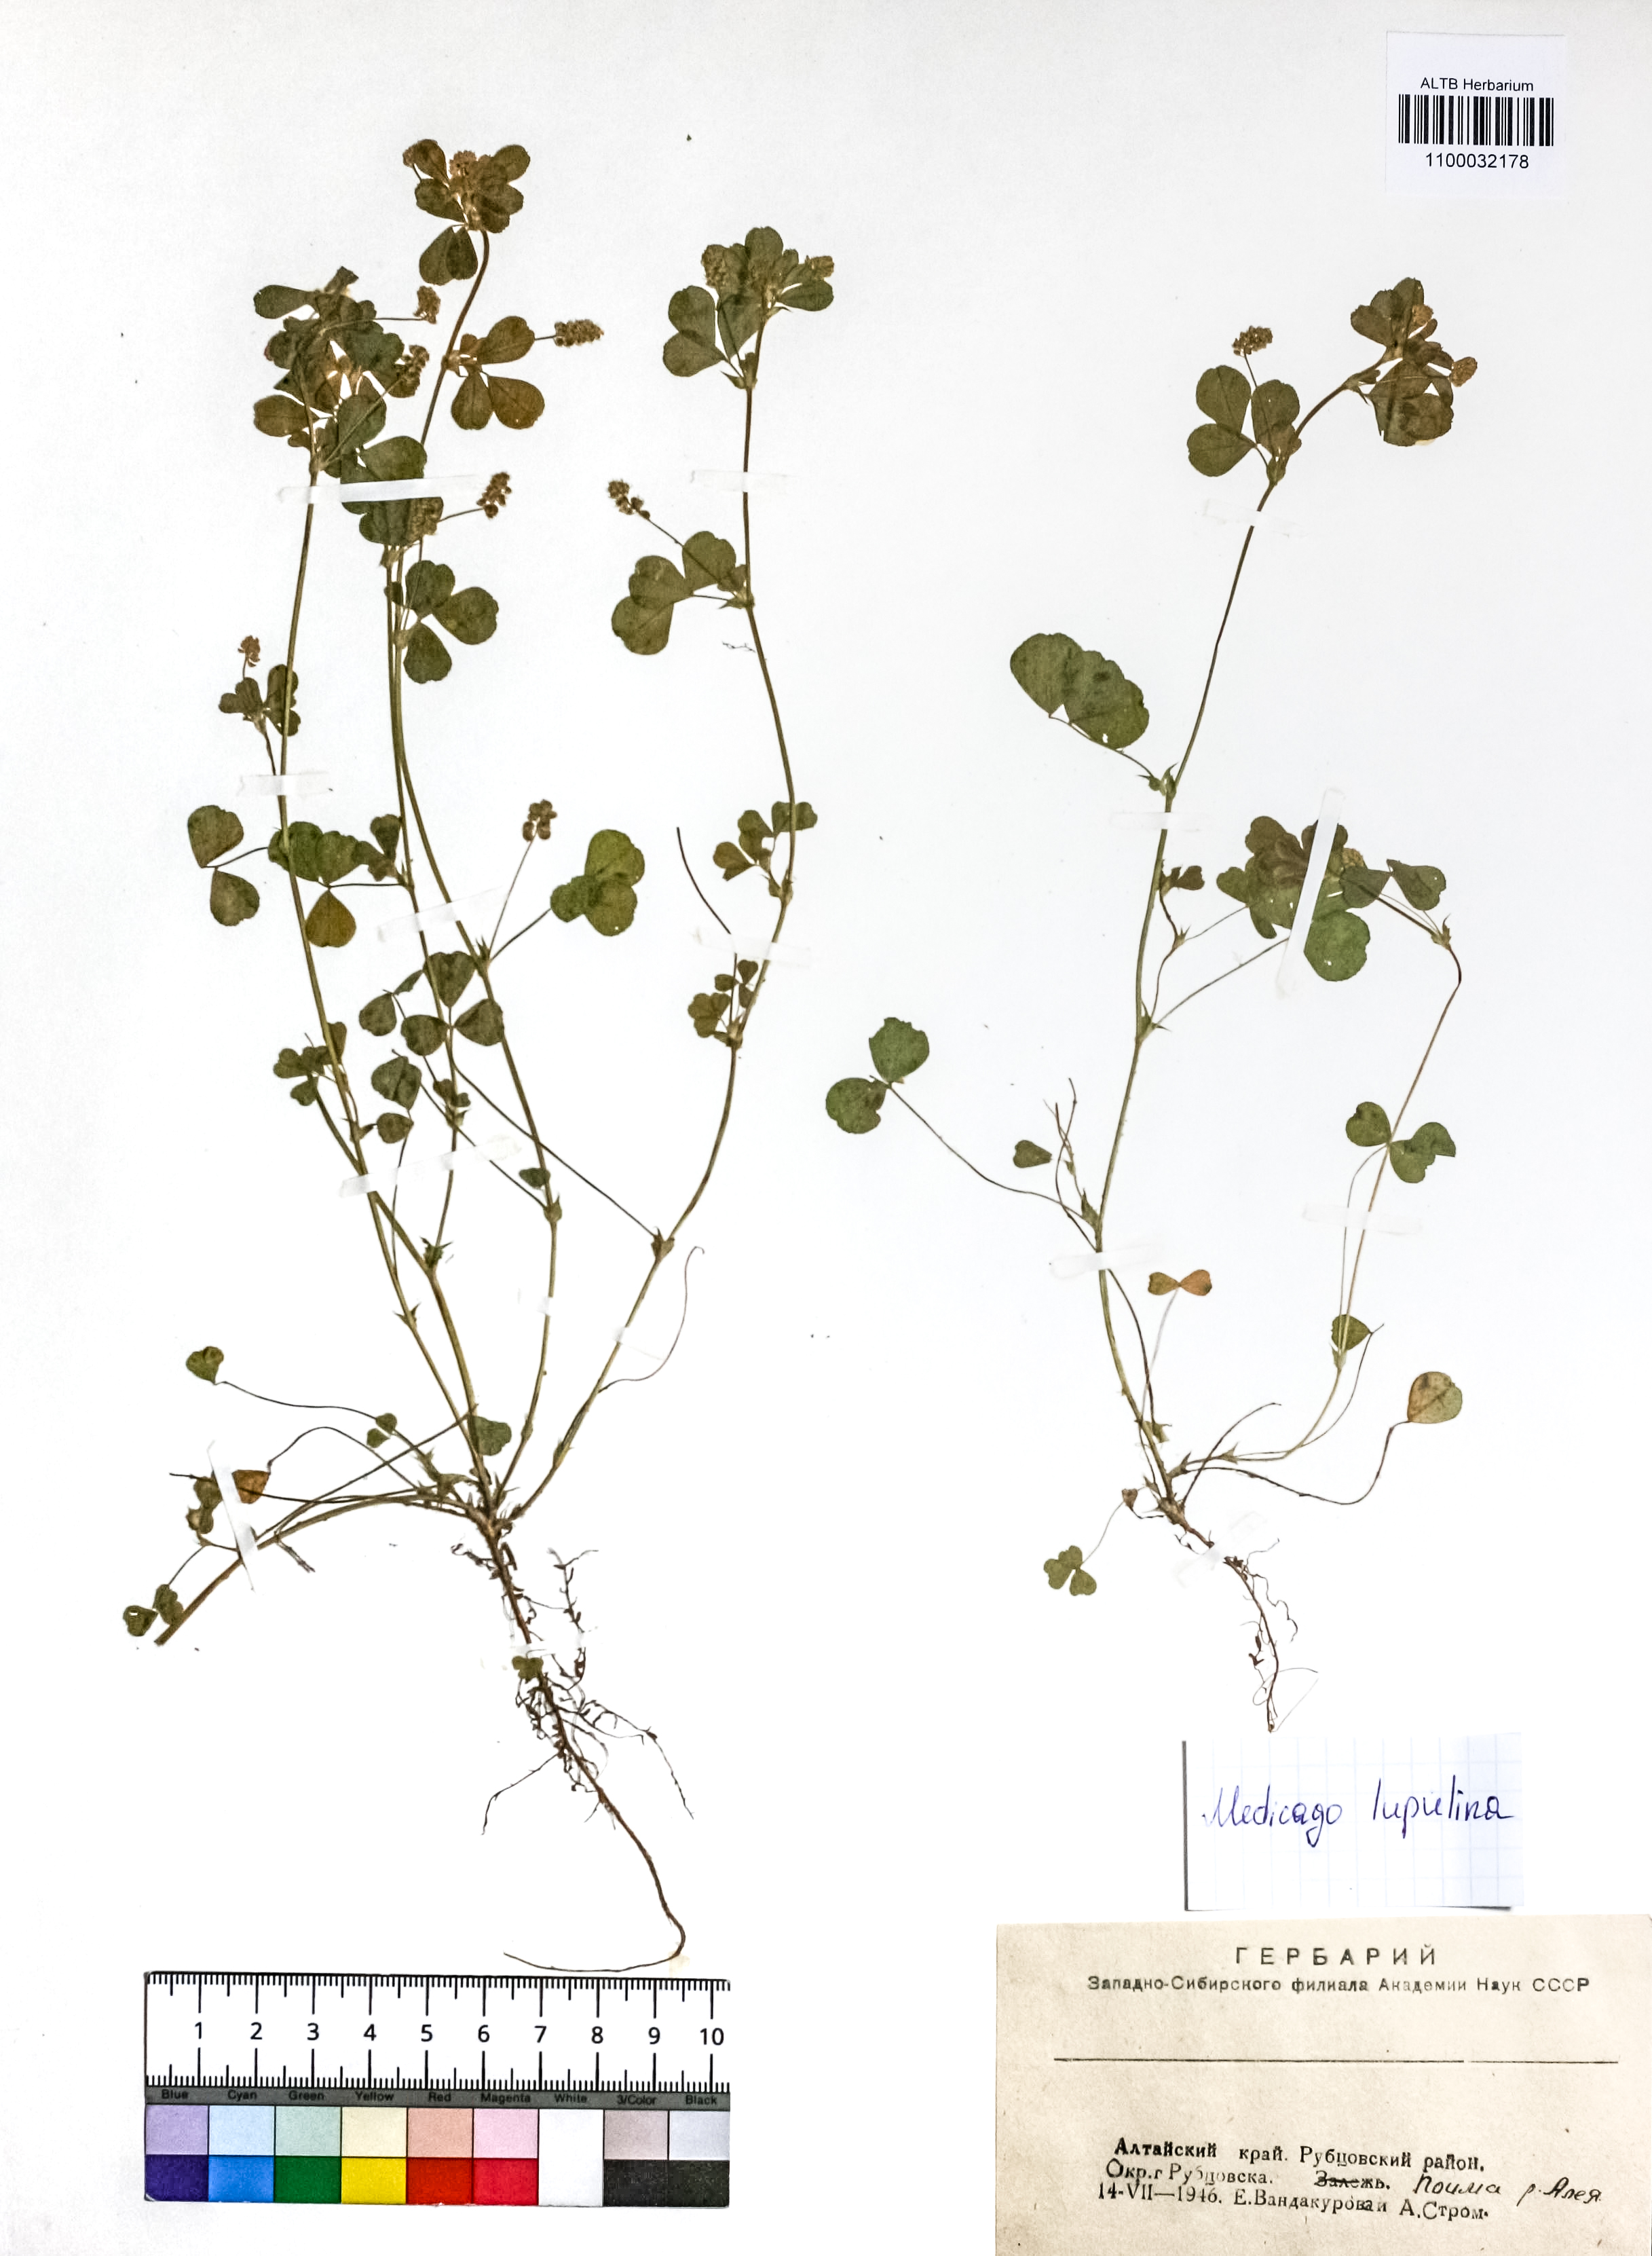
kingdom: Plantae
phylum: Tracheophyta
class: Magnoliopsida
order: Fabales
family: Fabaceae
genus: Medicago
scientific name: Medicago lupulina
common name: Black medick
